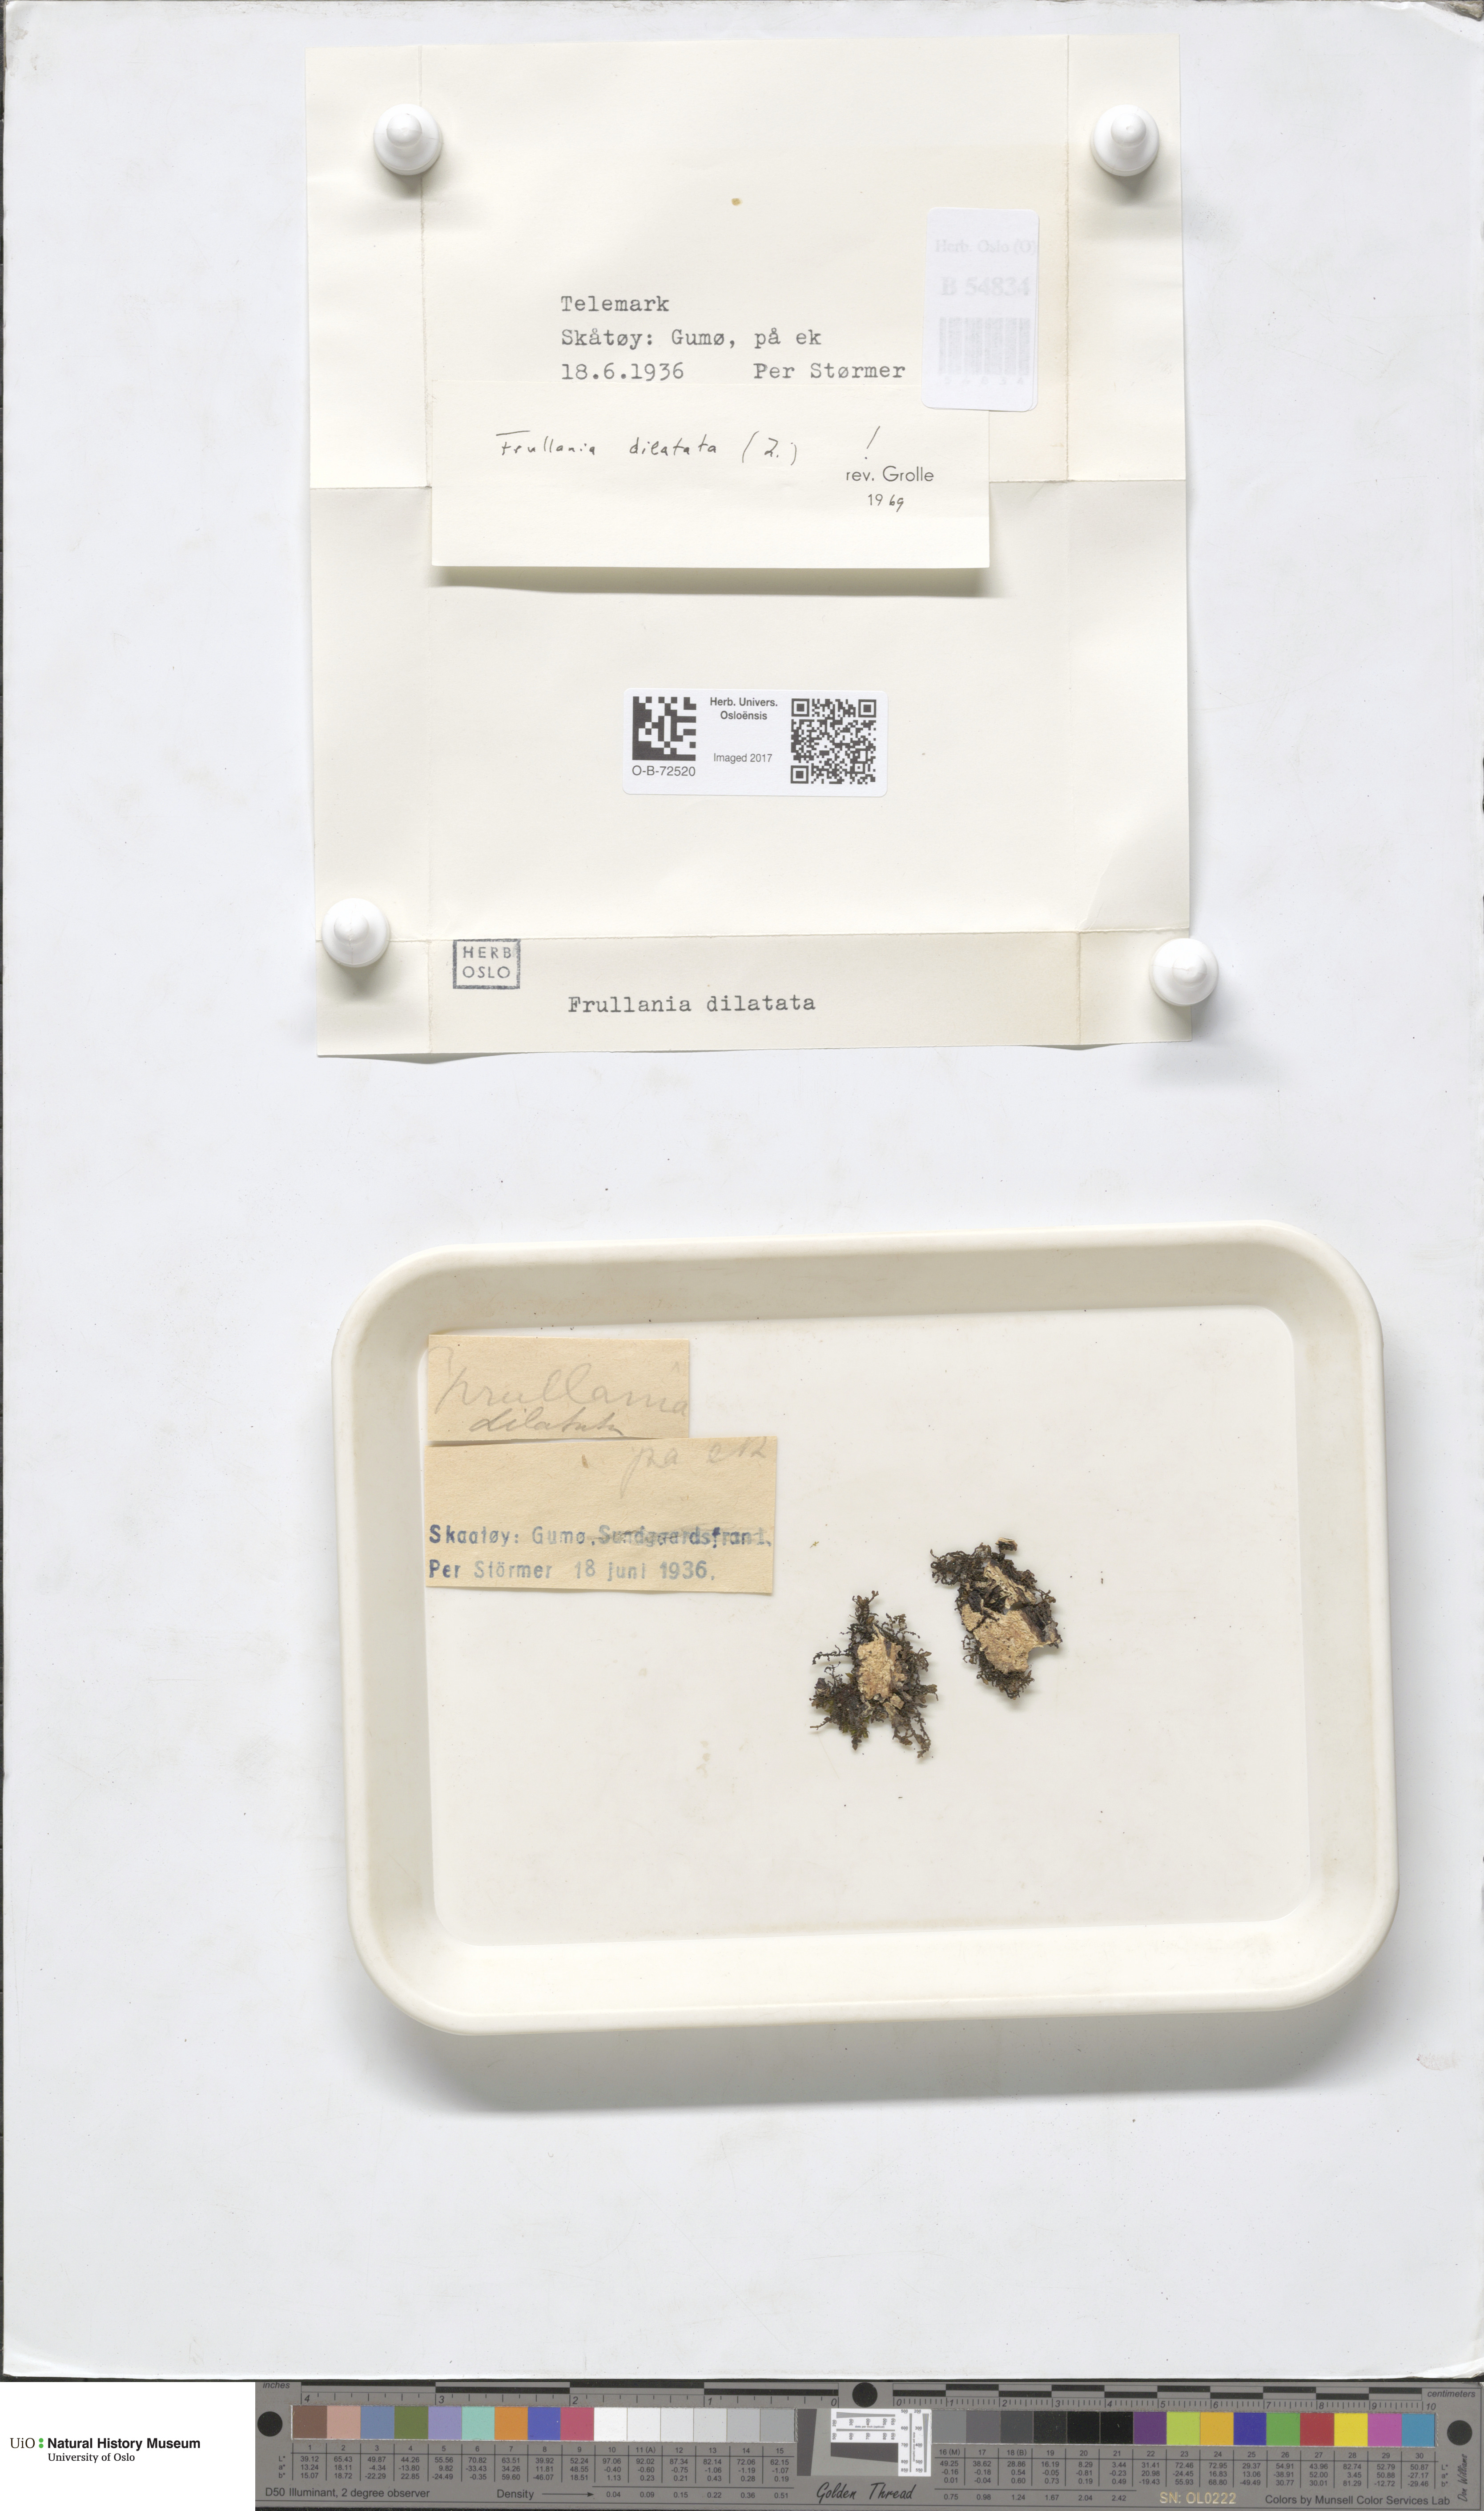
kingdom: Plantae
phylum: Marchantiophyta
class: Jungermanniopsida
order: Porellales
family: Frullaniaceae
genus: Frullania
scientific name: Frullania dilatata
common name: Dilated scalewort
